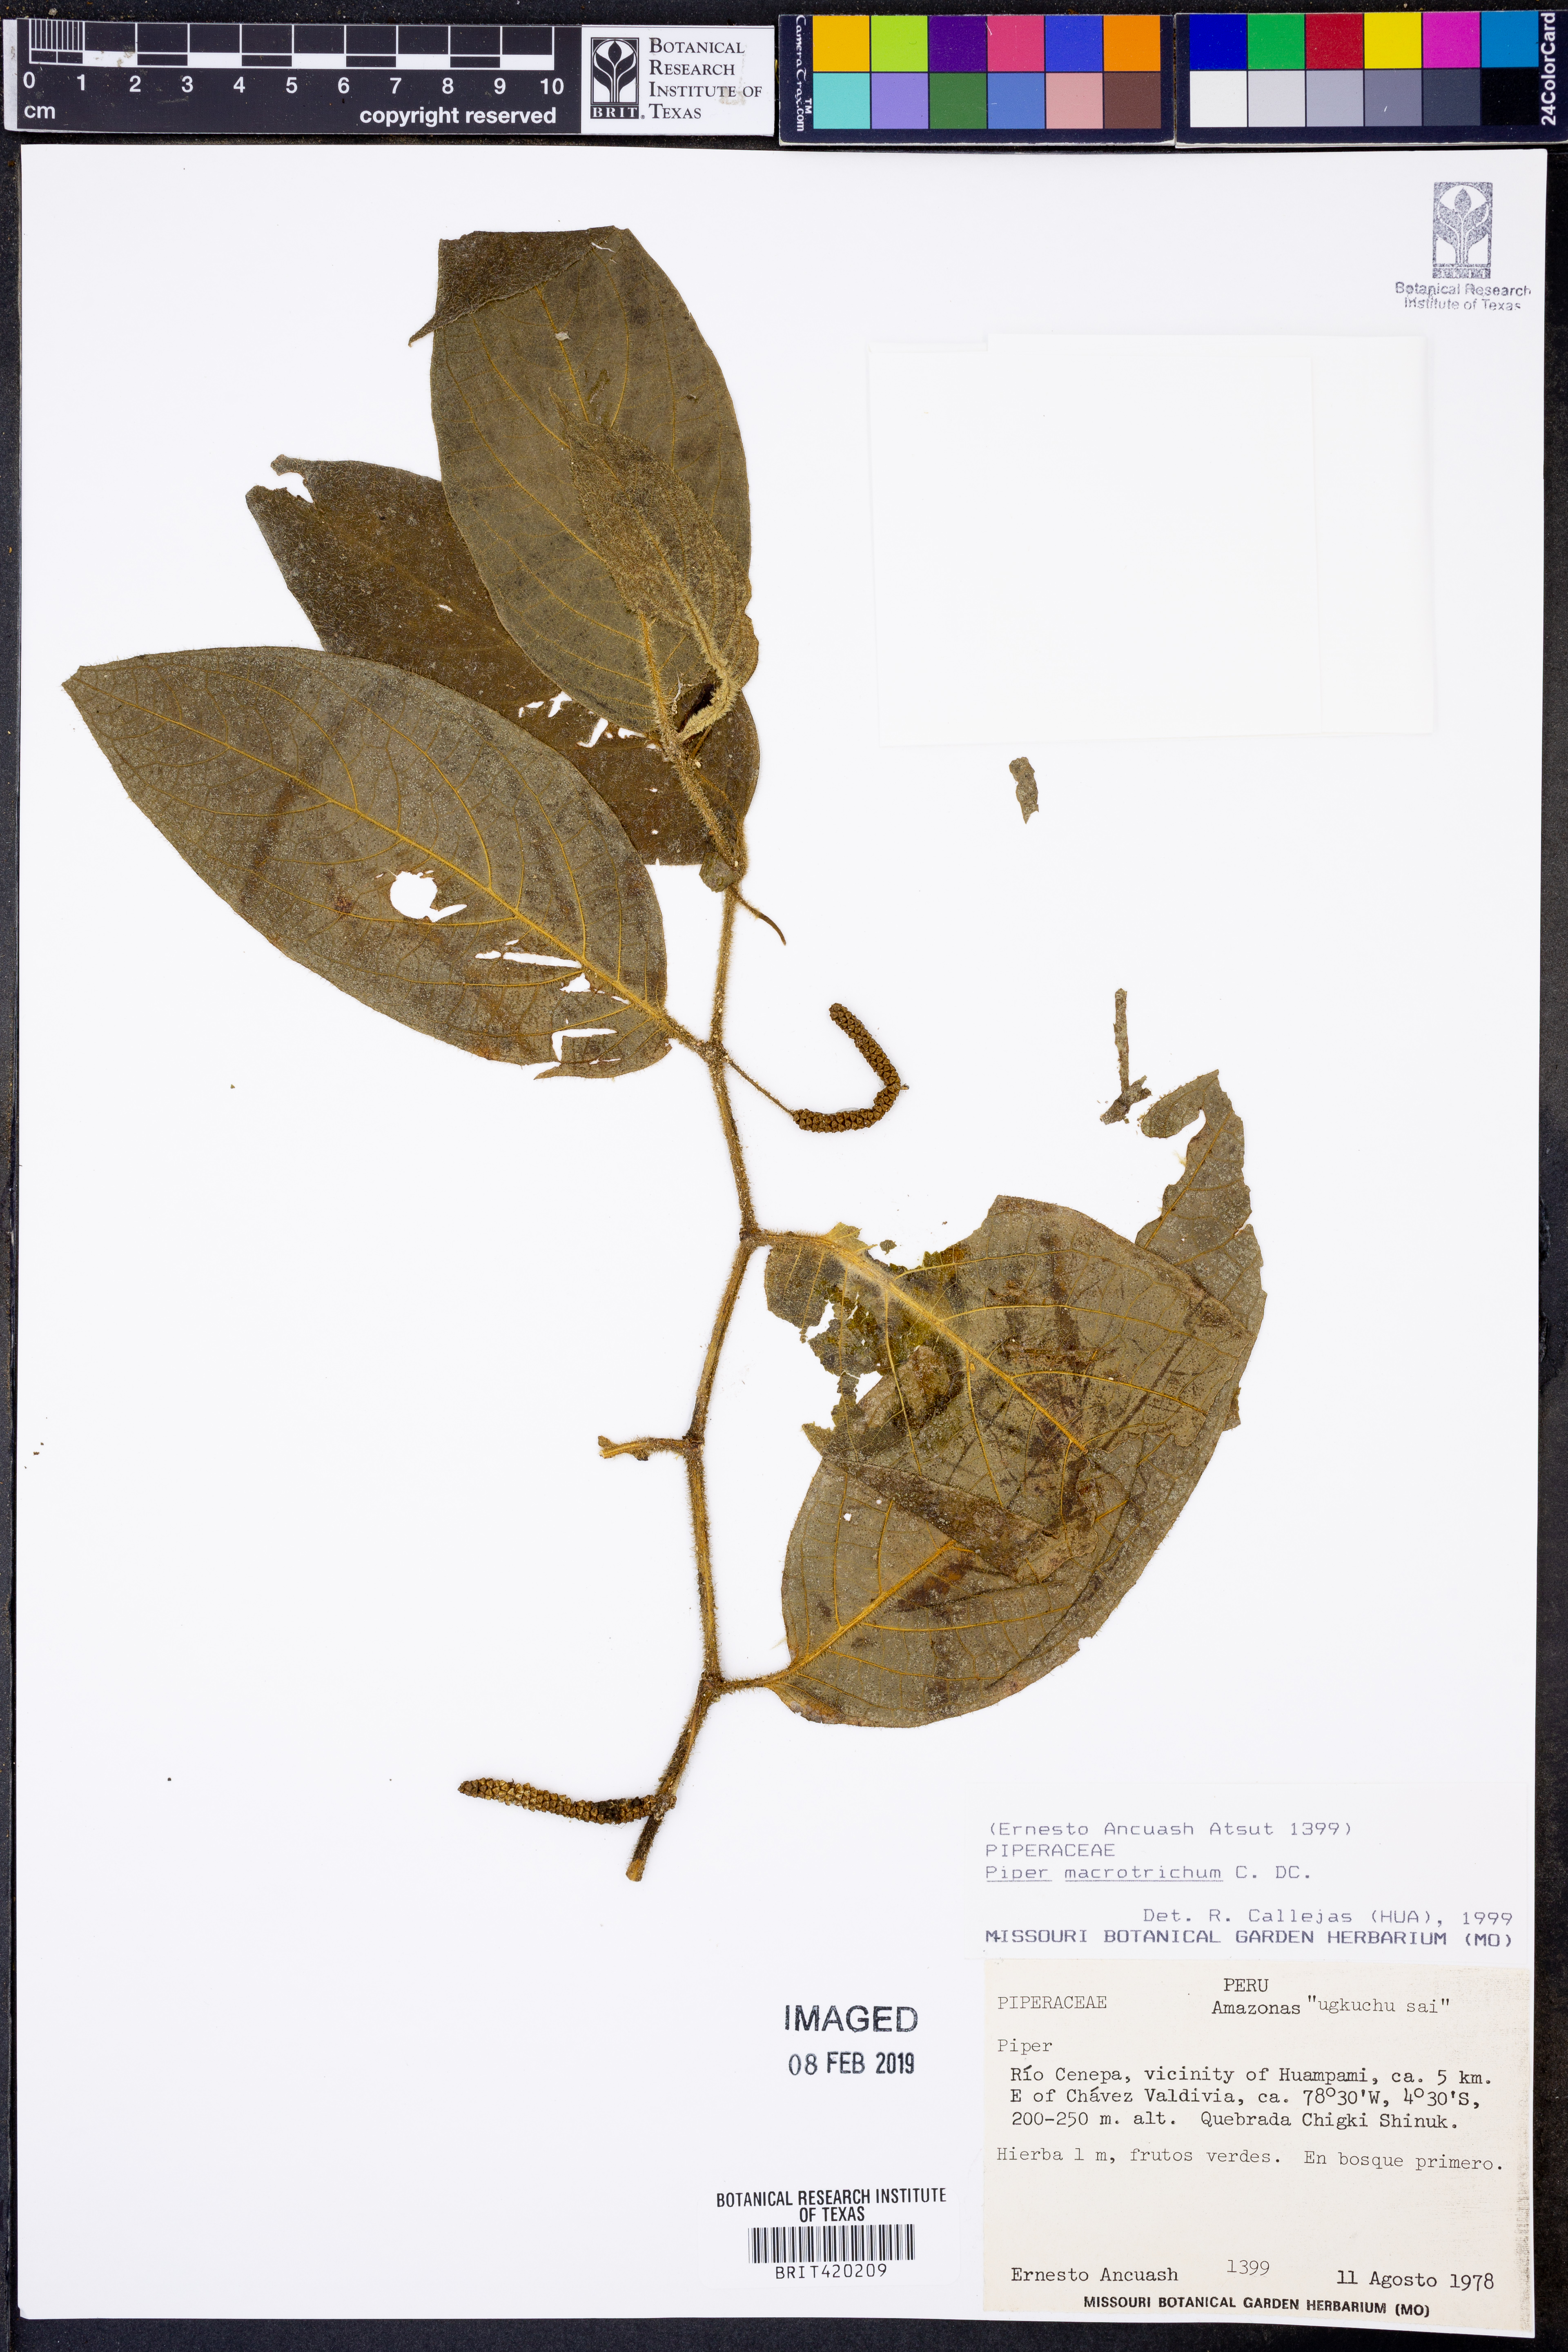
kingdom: Plantae
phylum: Tracheophyta
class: Magnoliopsida
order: Piperales
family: Piperaceae
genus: Piper
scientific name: Piper macrotrichum
